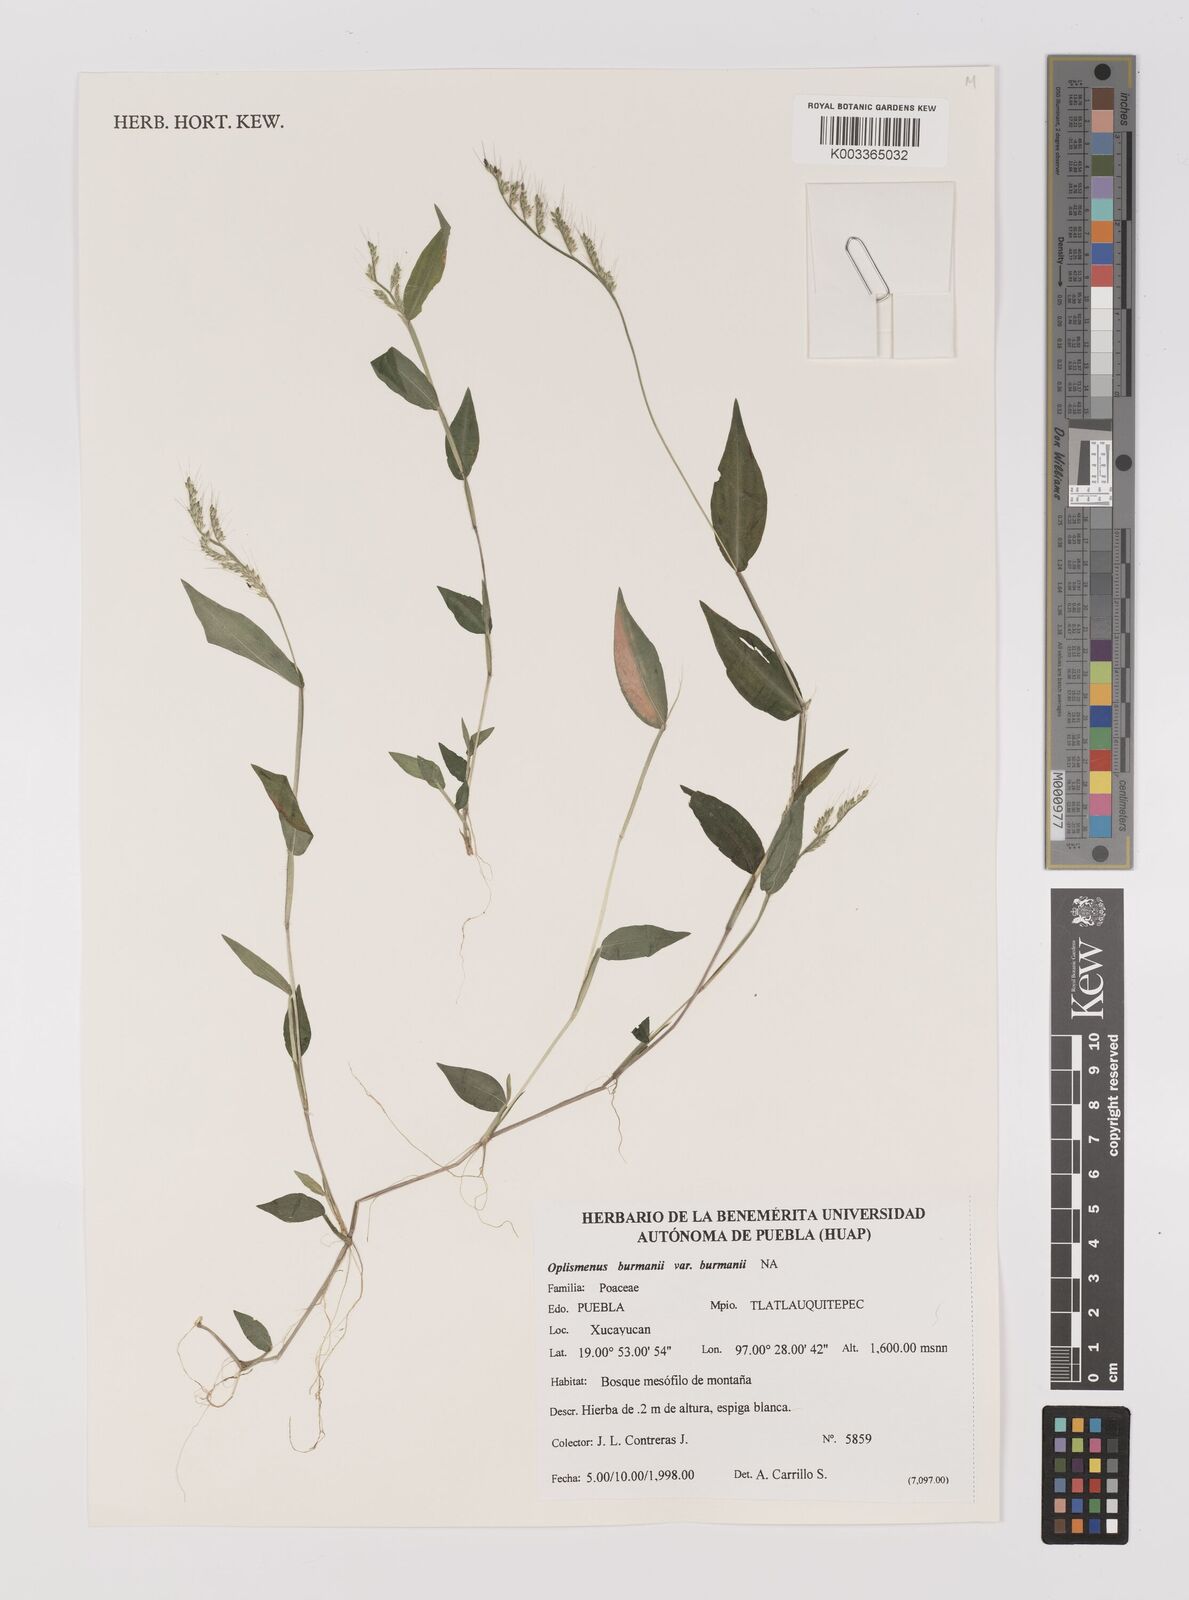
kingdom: Plantae
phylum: Tracheophyta
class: Liliopsida
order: Poales
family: Poaceae
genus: Oplismenus
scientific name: Oplismenus burmanni
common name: Burmann's basketgrass
